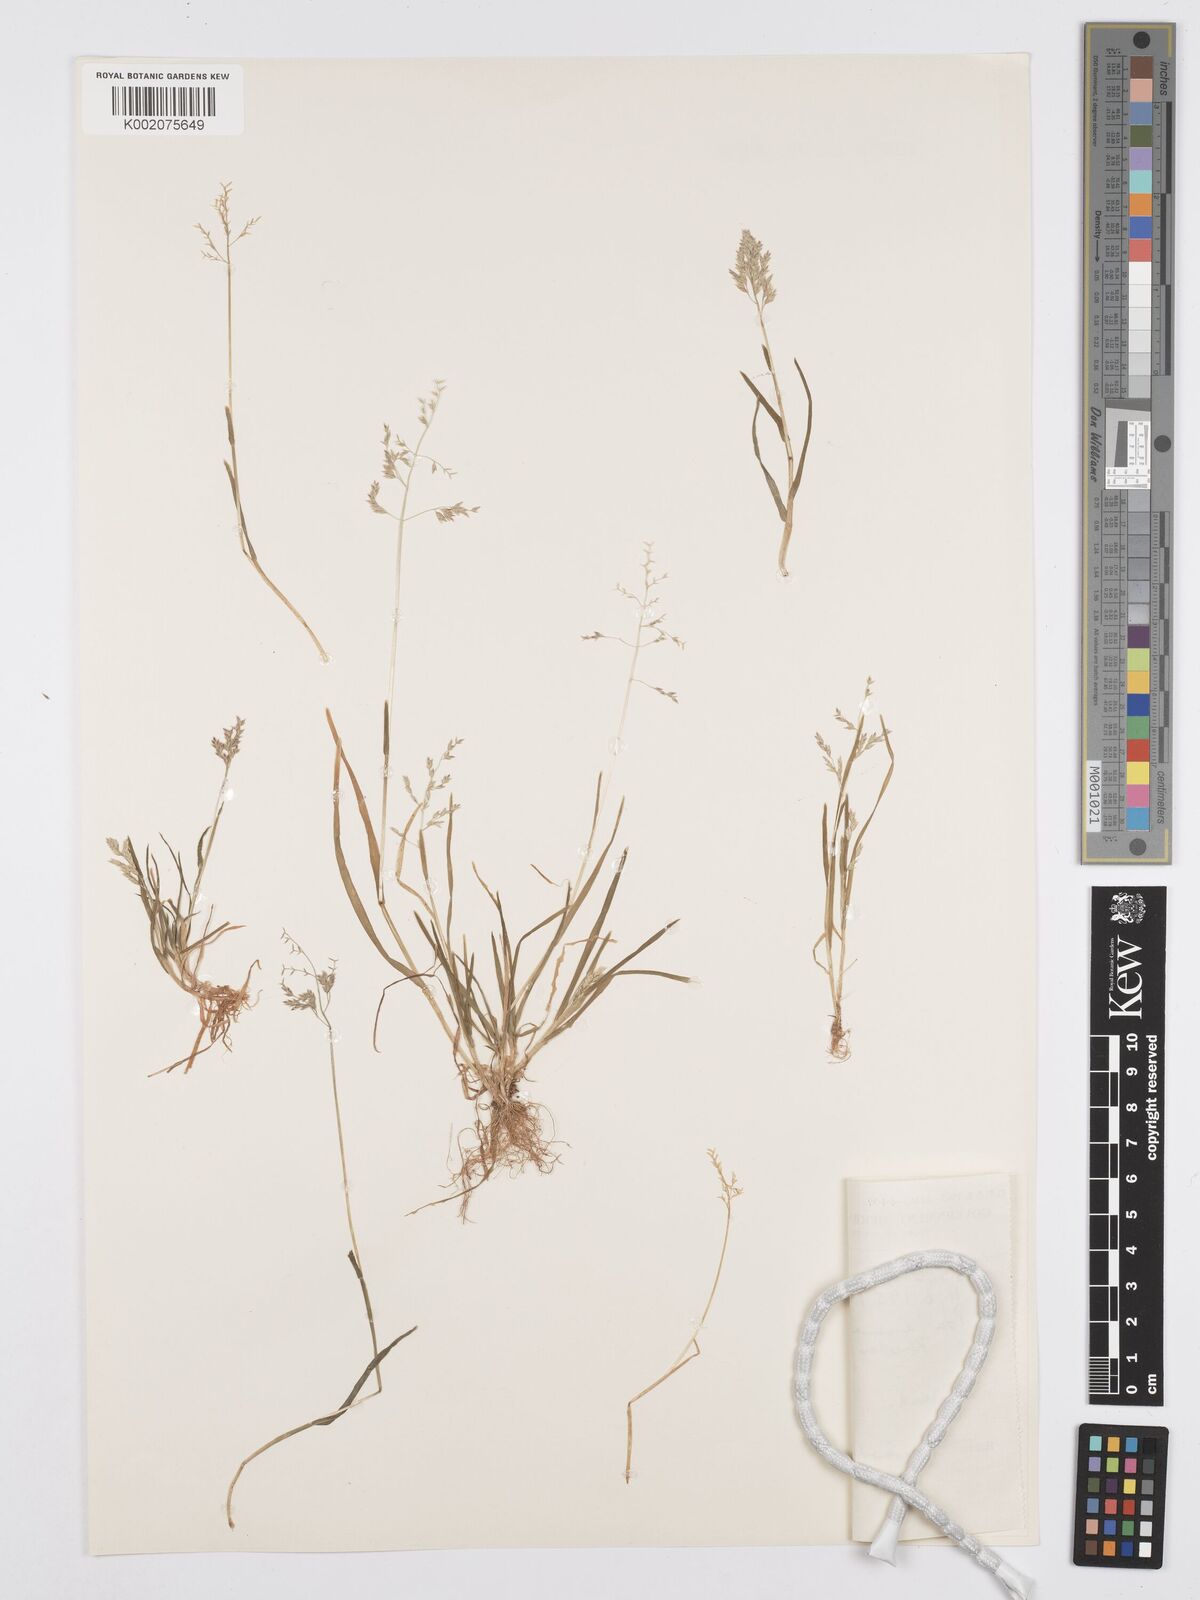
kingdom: Plantae
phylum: Tracheophyta
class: Liliopsida
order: Poales
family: Poaceae
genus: Poa
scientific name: Poa annua
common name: Annual bluegrass
